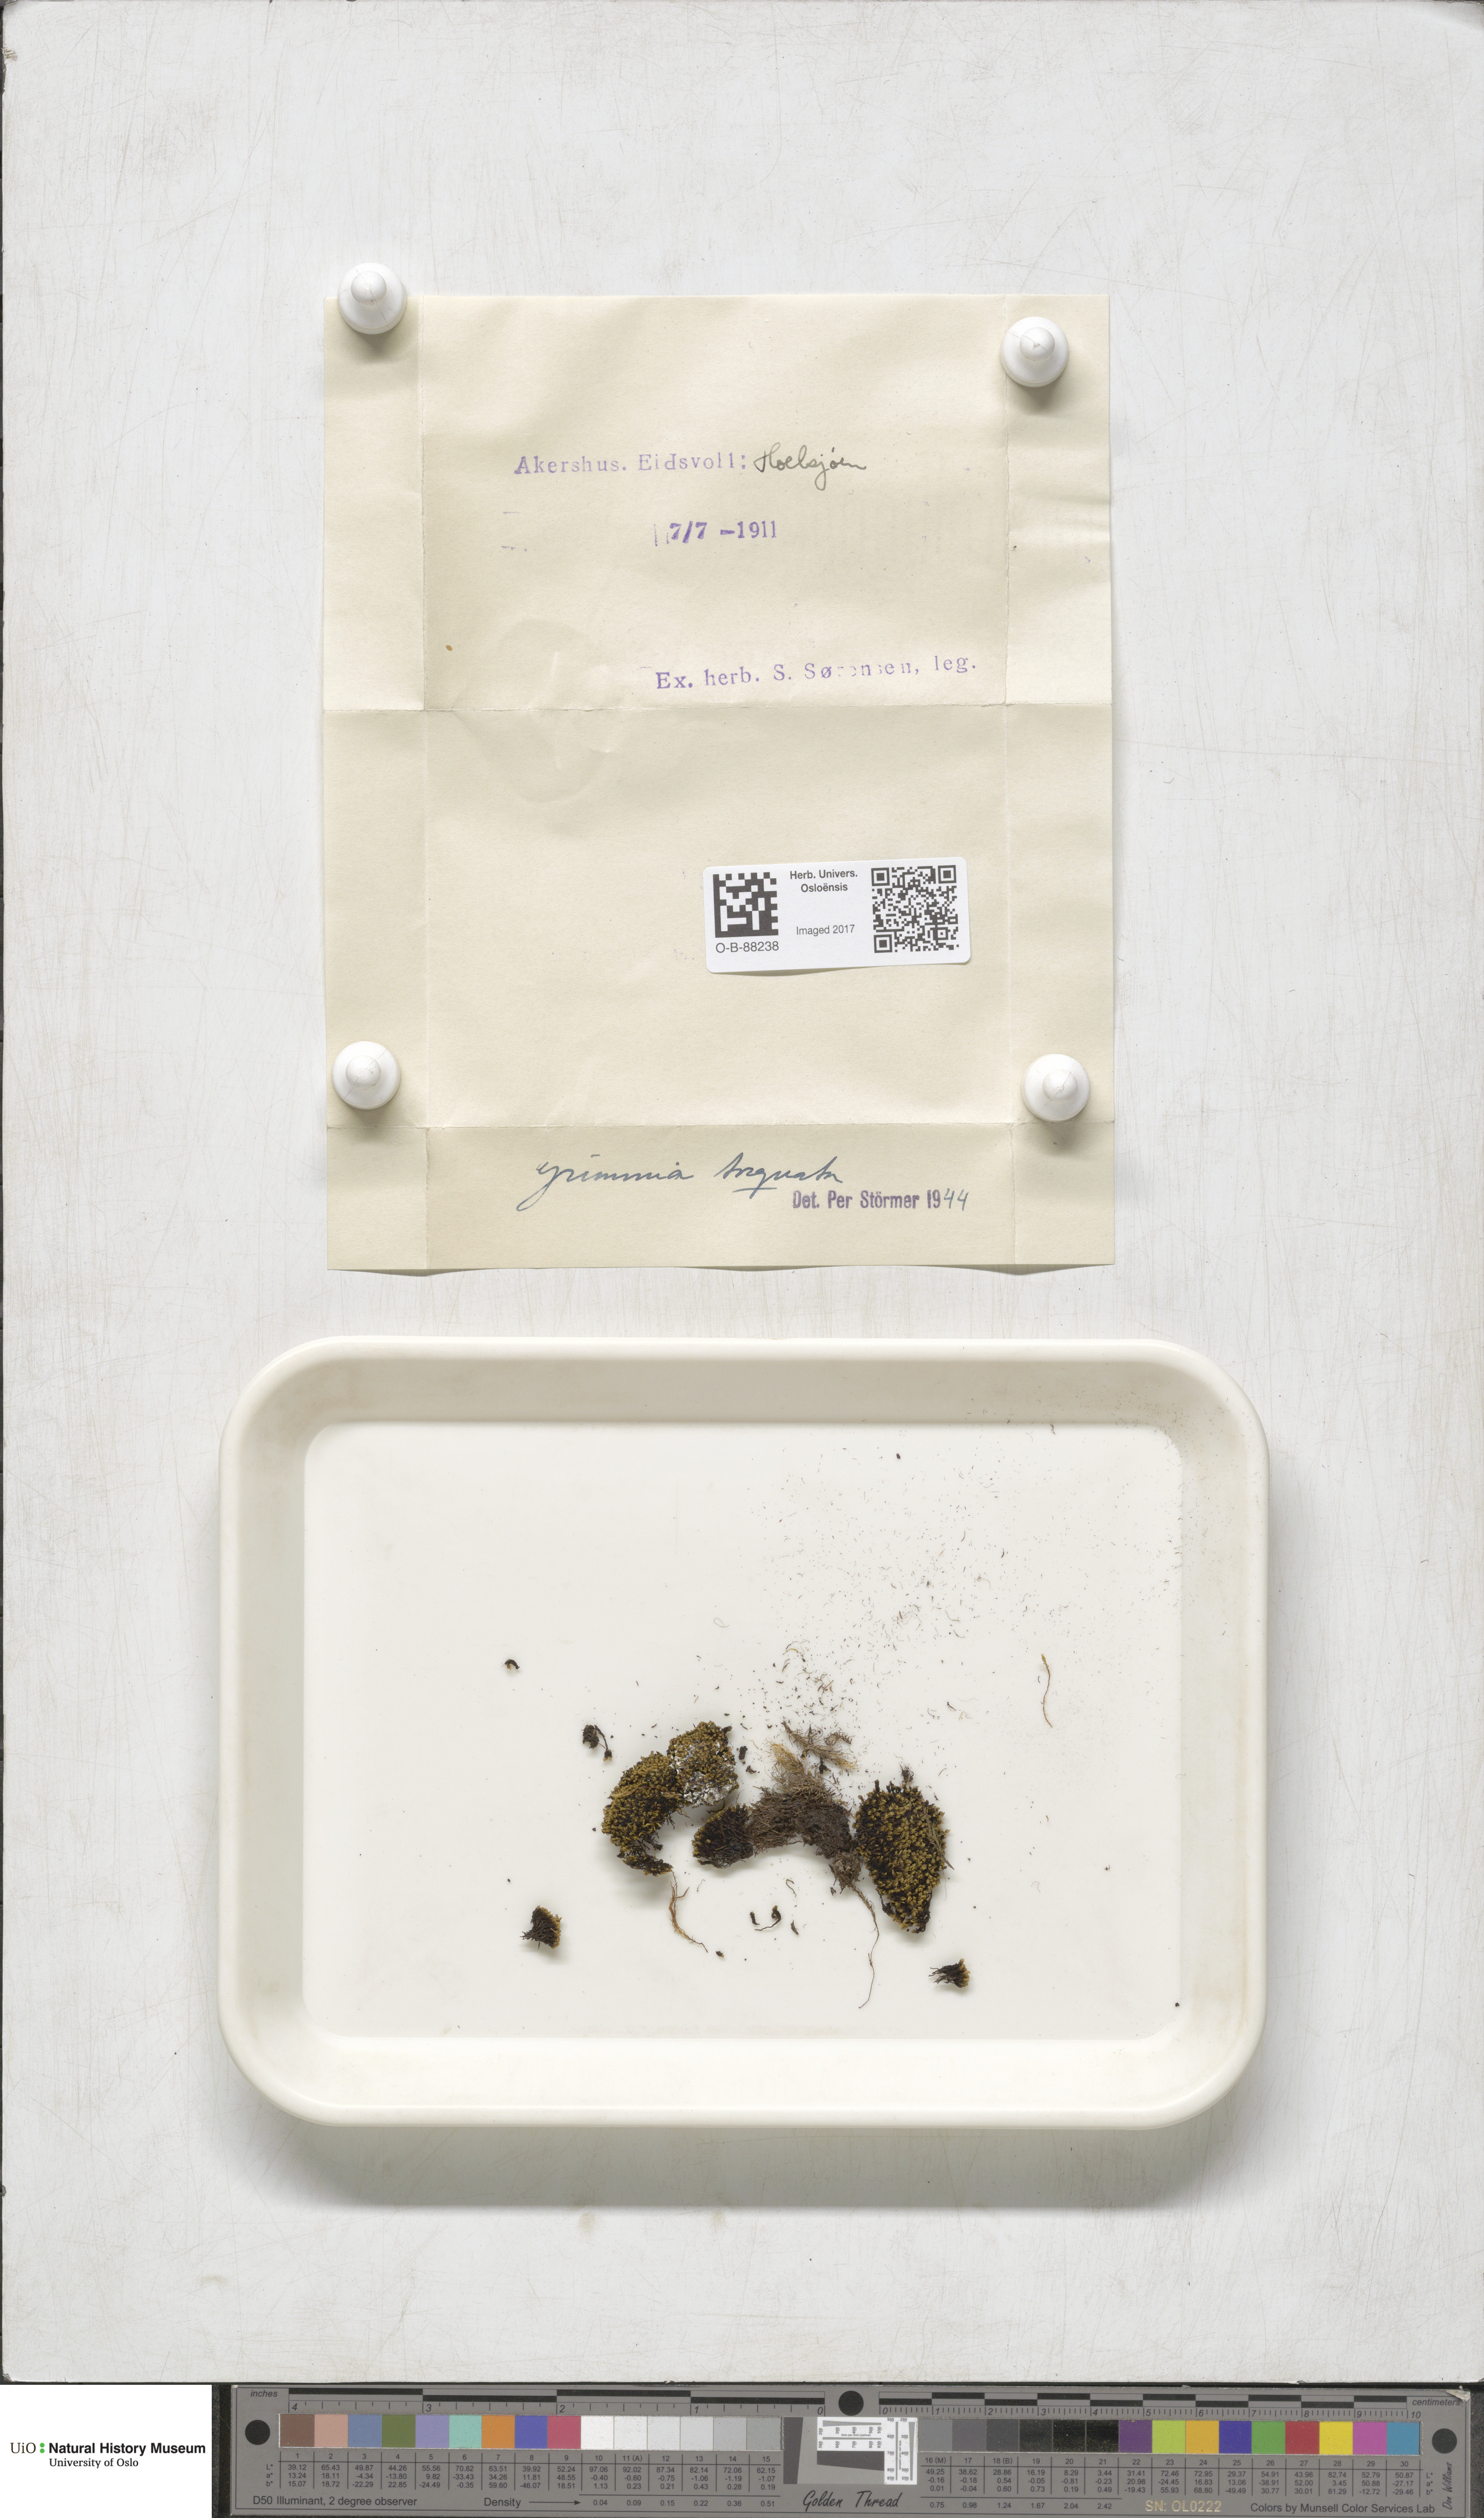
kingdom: Plantae
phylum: Bryophyta
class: Bryopsida
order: Grimmiales
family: Grimmiaceae
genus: Grimmia
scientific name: Grimmia torquata
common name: Twisted grimmia
